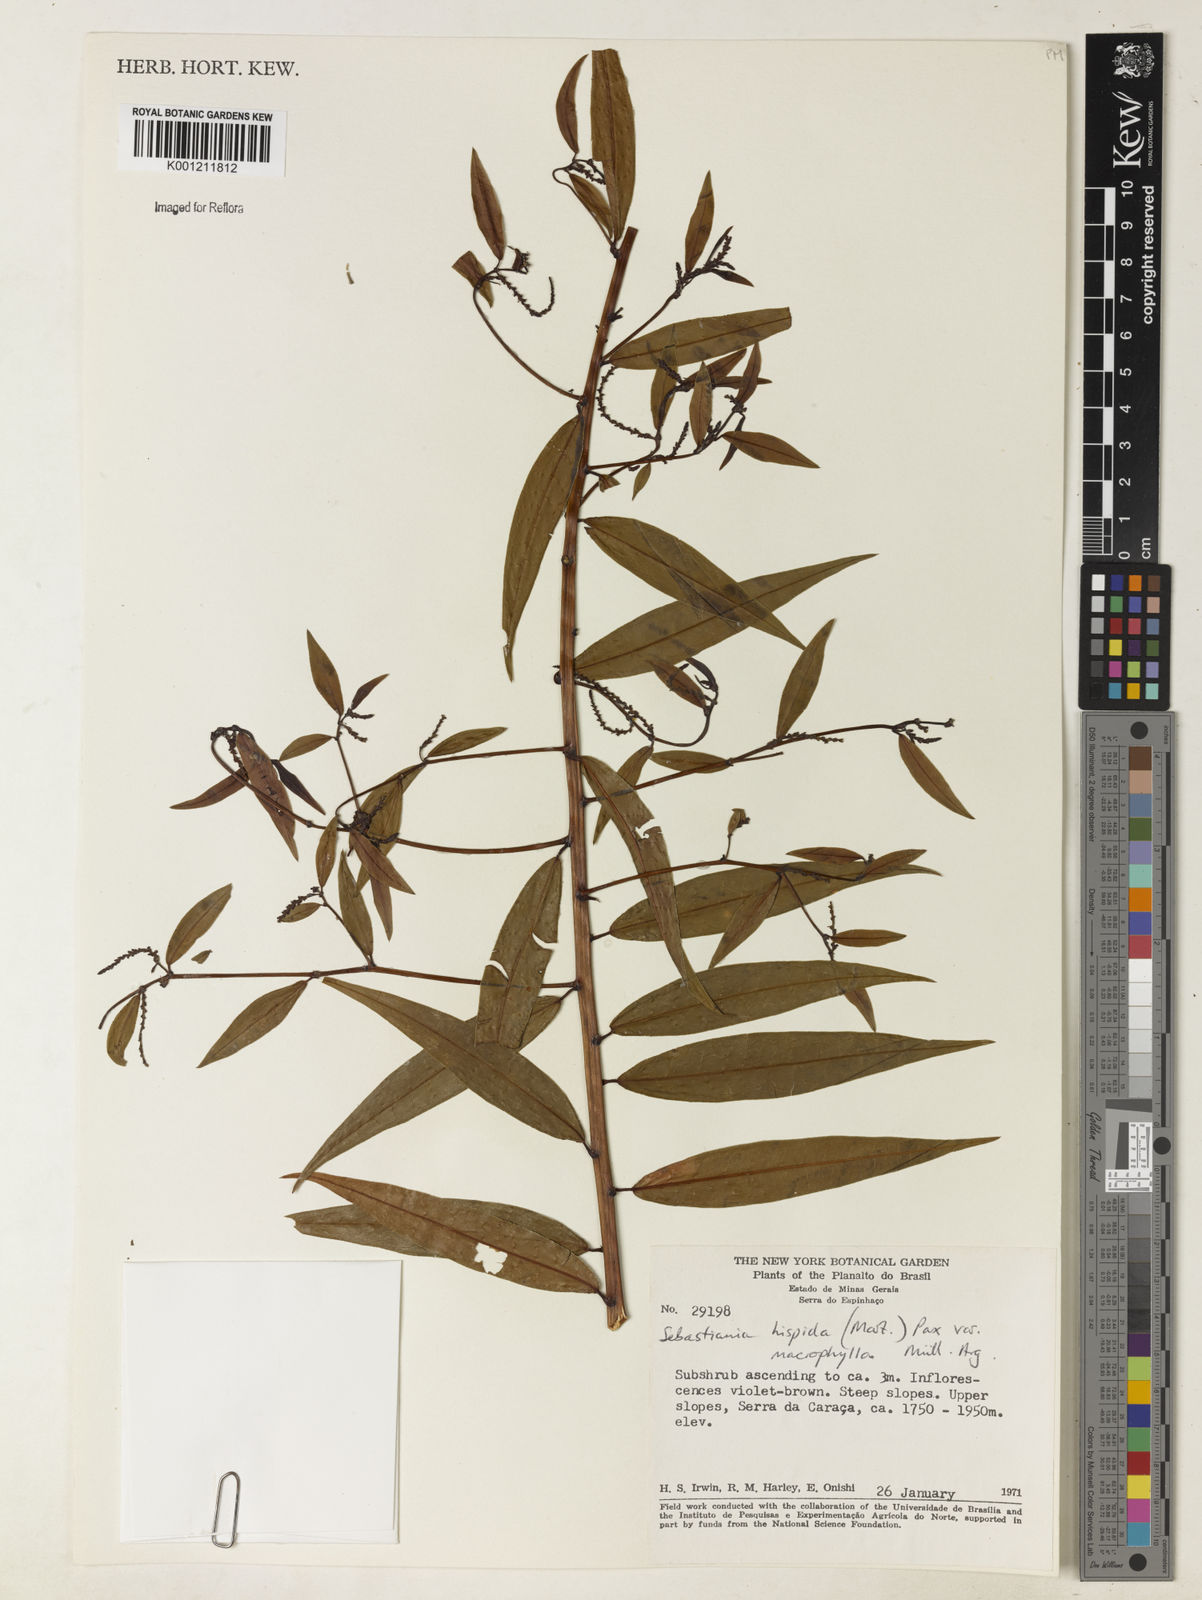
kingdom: Plantae
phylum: Tracheophyta
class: Magnoliopsida
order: Malpighiales
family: Euphorbiaceae
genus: Microstachys
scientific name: Microstachys hispida
